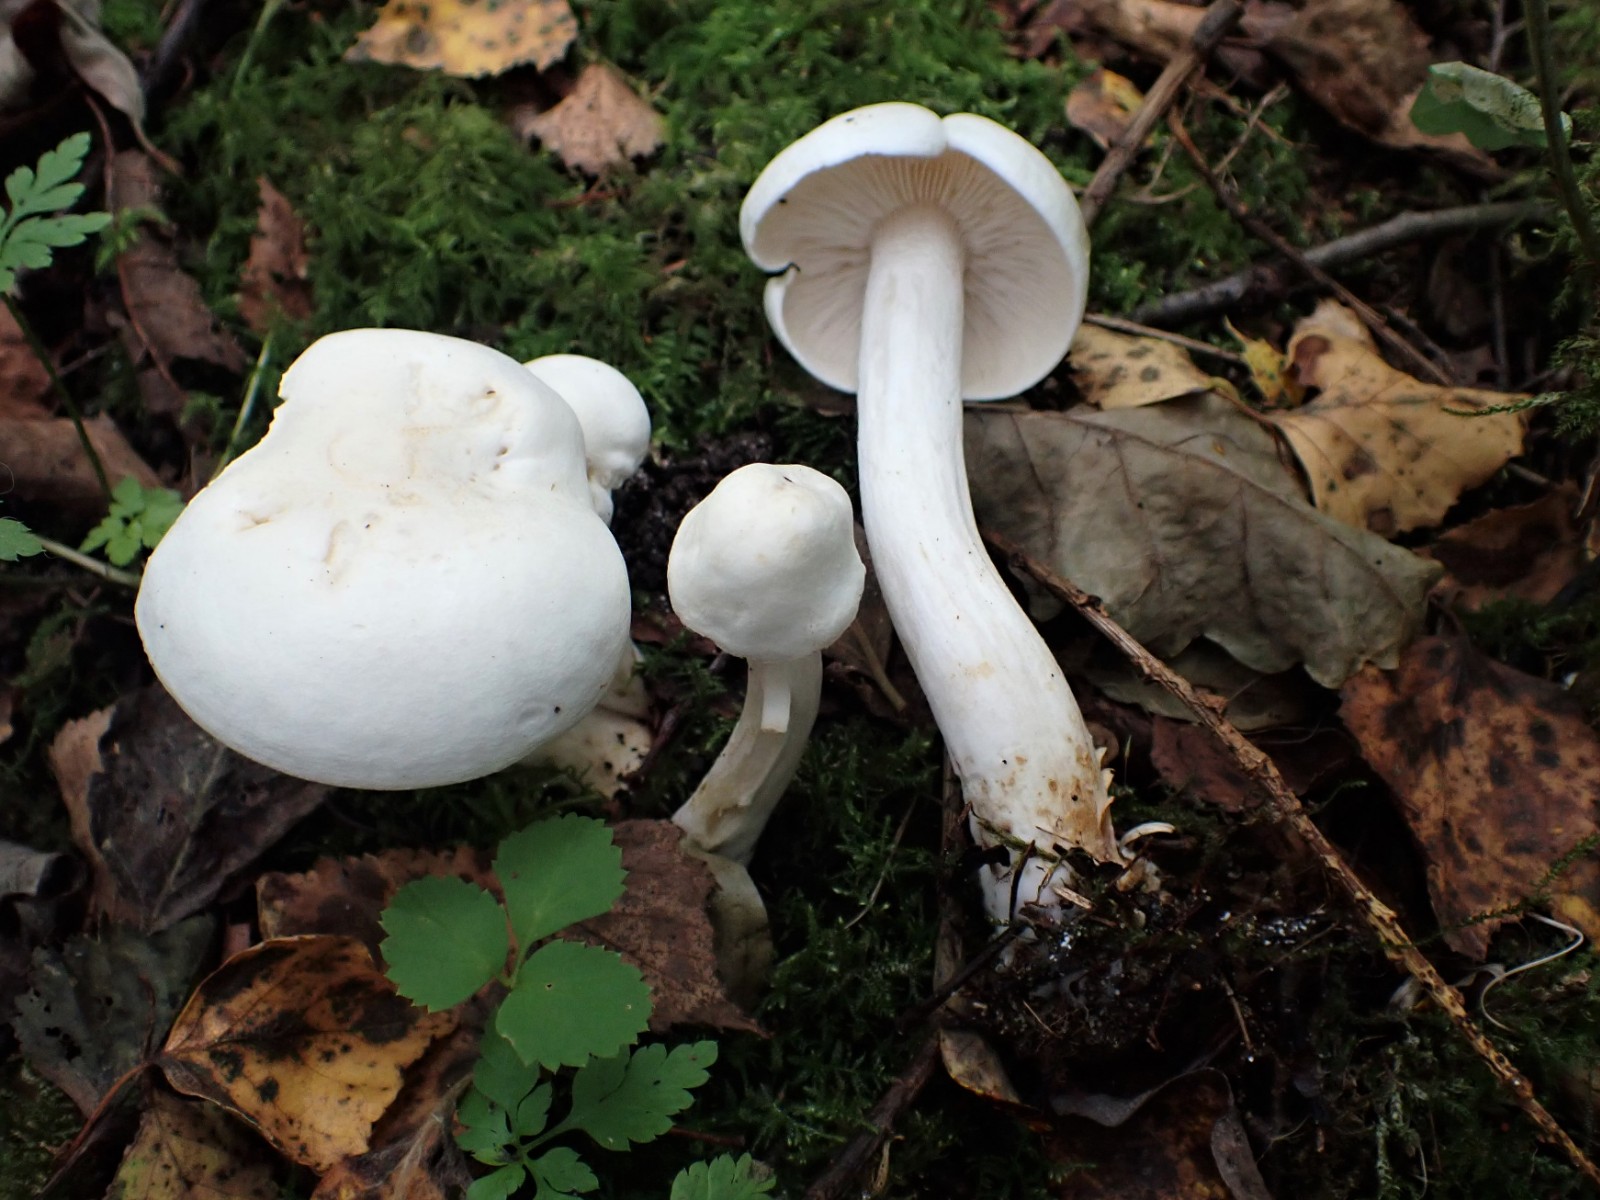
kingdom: Fungi
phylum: Basidiomycota
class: Agaricomycetes
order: Agaricales
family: Tricholomataceae
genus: Tricholoma
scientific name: Tricholoma stiparophyllum
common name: hvid ridderhat
